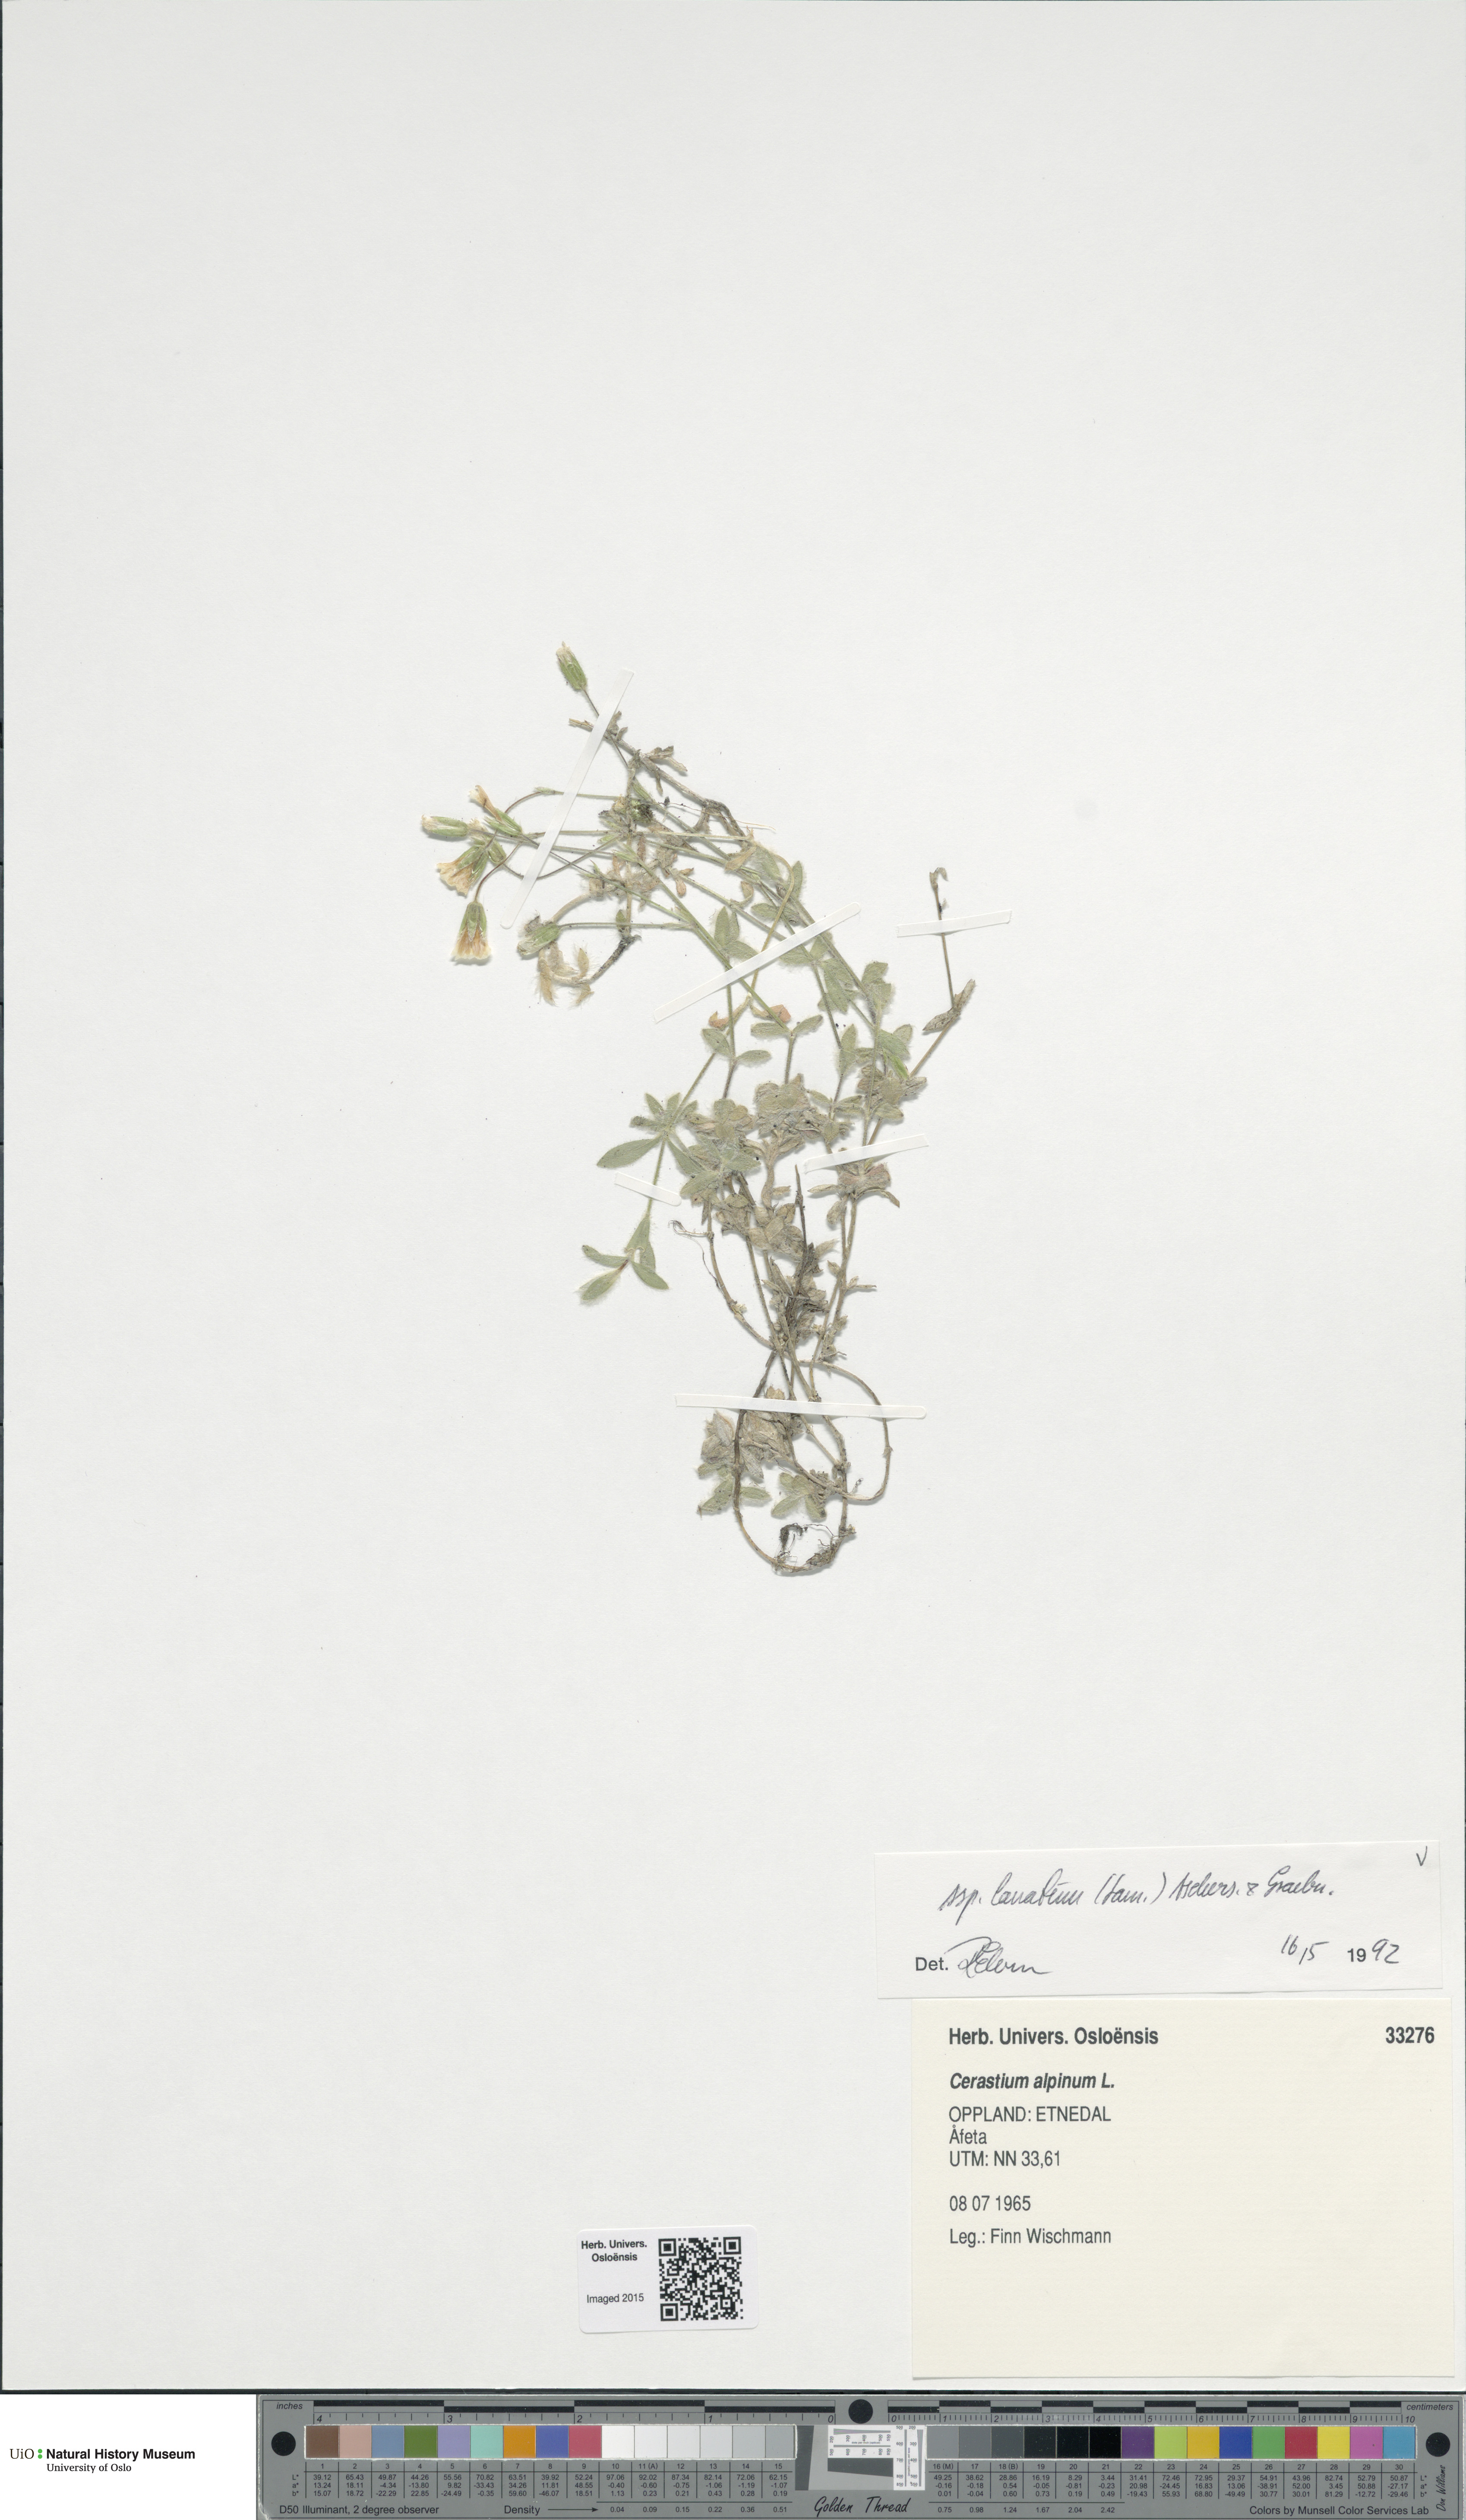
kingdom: Plantae
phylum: Tracheophyta
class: Magnoliopsida
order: Caryophyllales
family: Caryophyllaceae
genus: Cerastium
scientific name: Cerastium alpinum
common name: Alpine mouse-ear
